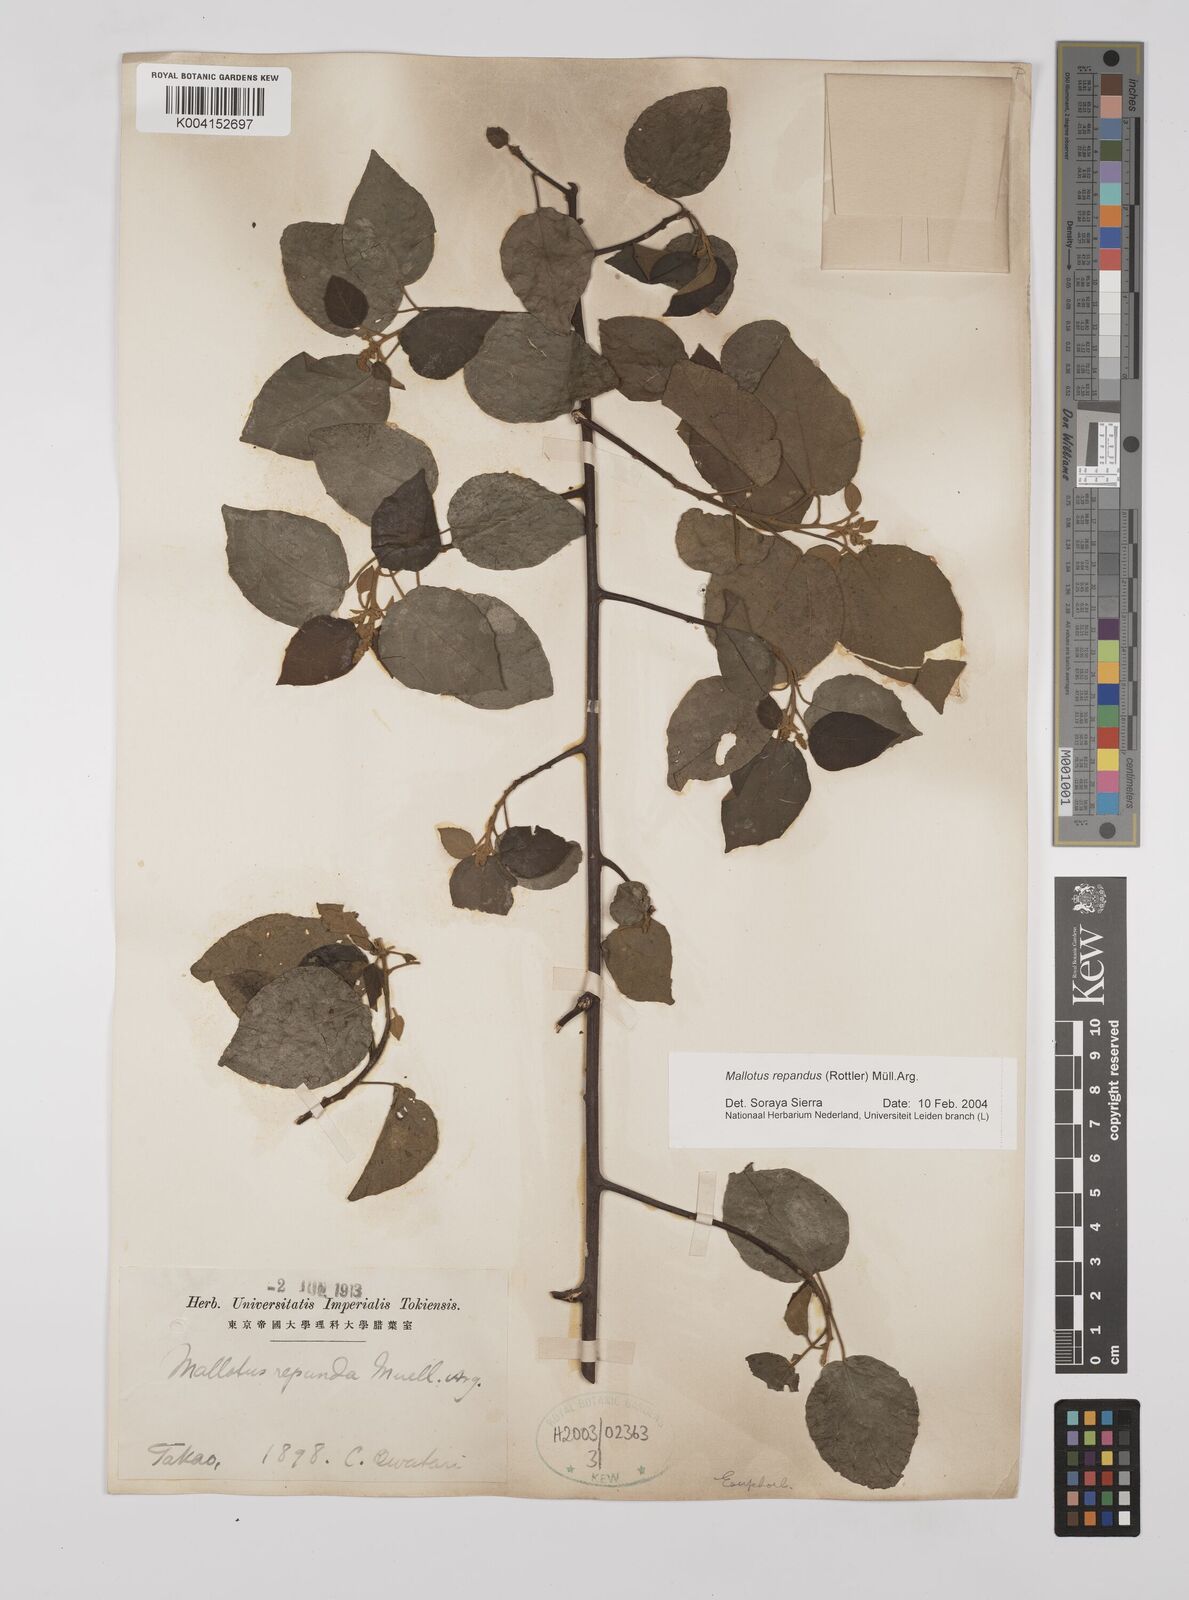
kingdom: Plantae
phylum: Tracheophyta
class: Magnoliopsida
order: Malpighiales
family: Euphorbiaceae
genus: Mallotus
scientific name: Mallotus repandus
